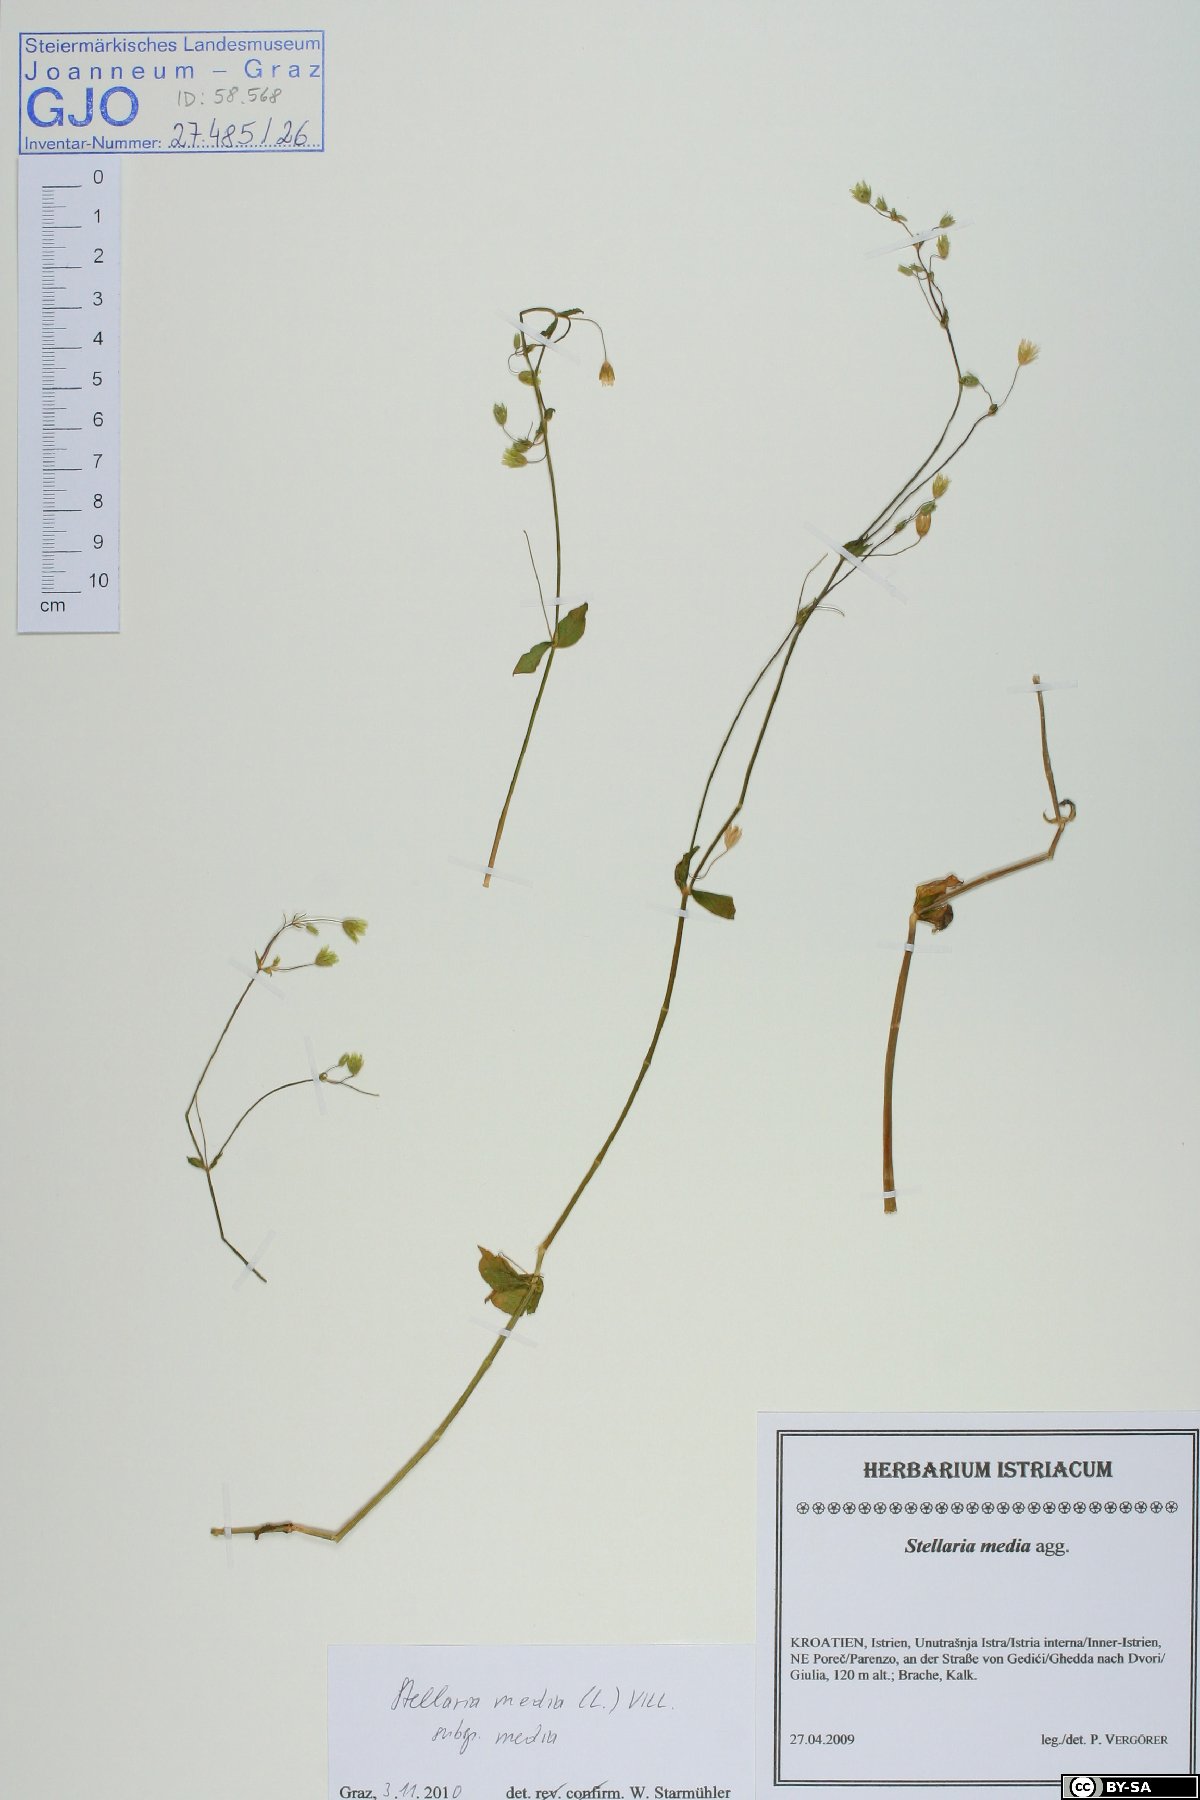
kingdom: Plantae
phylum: Tracheophyta
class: Magnoliopsida
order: Caryophyllales
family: Caryophyllaceae
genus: Stellaria
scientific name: Stellaria media
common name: Common chickweed
